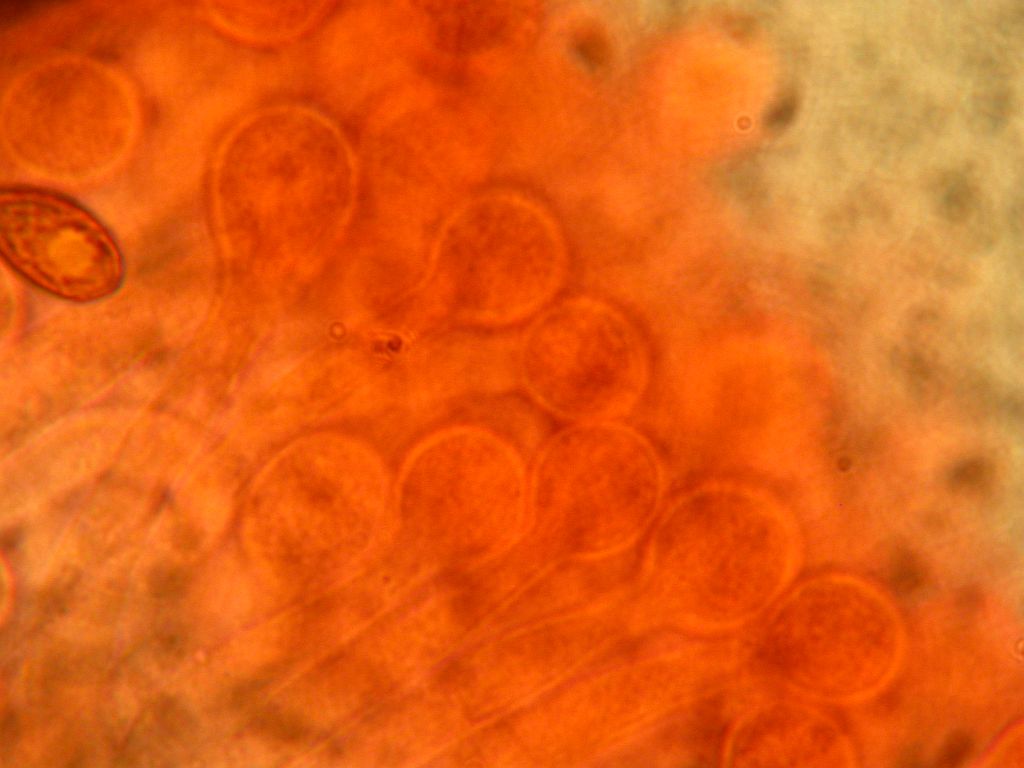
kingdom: Fungi
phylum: Basidiomycota
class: Agaricomycetes
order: Agaricales
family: Hymenogastraceae
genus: Galerina
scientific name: Galerina hybrida
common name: hængesæk-hjelmhat
